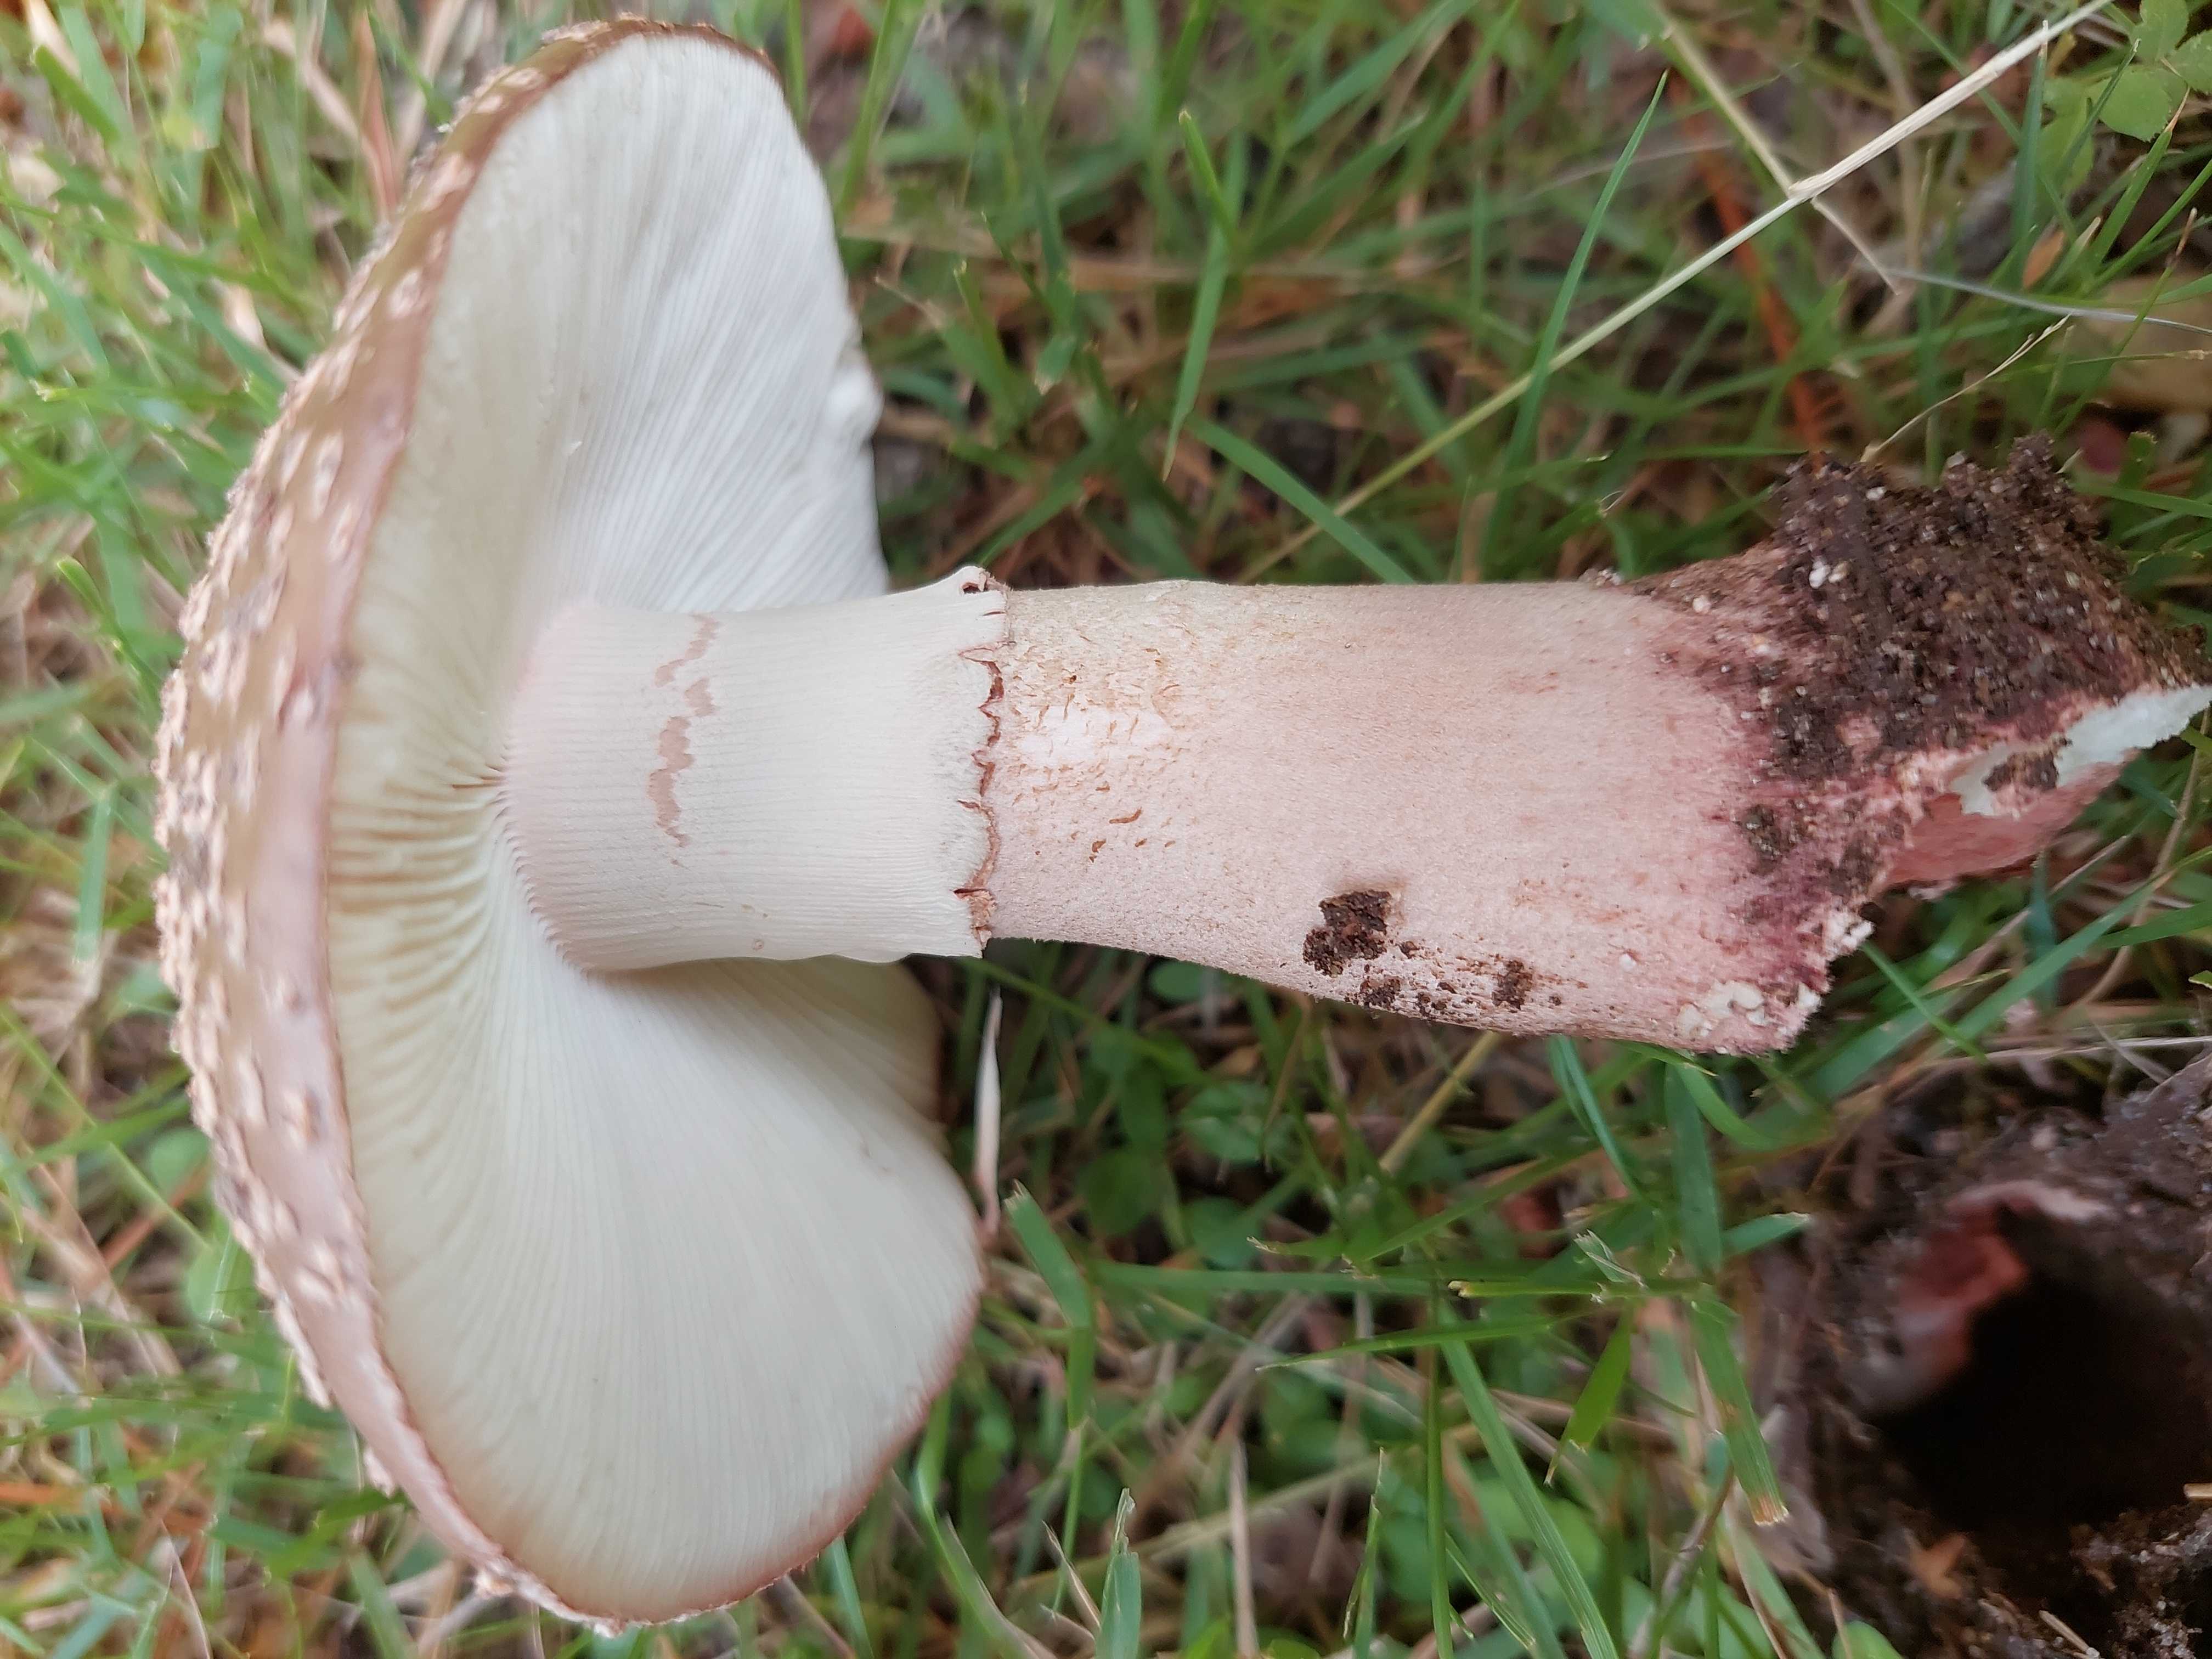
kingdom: Fungi
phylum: Basidiomycota
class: Agaricomycetes
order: Agaricales
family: Amanitaceae
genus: Amanita
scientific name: Amanita rubescens
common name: rødmende fluesvamp
